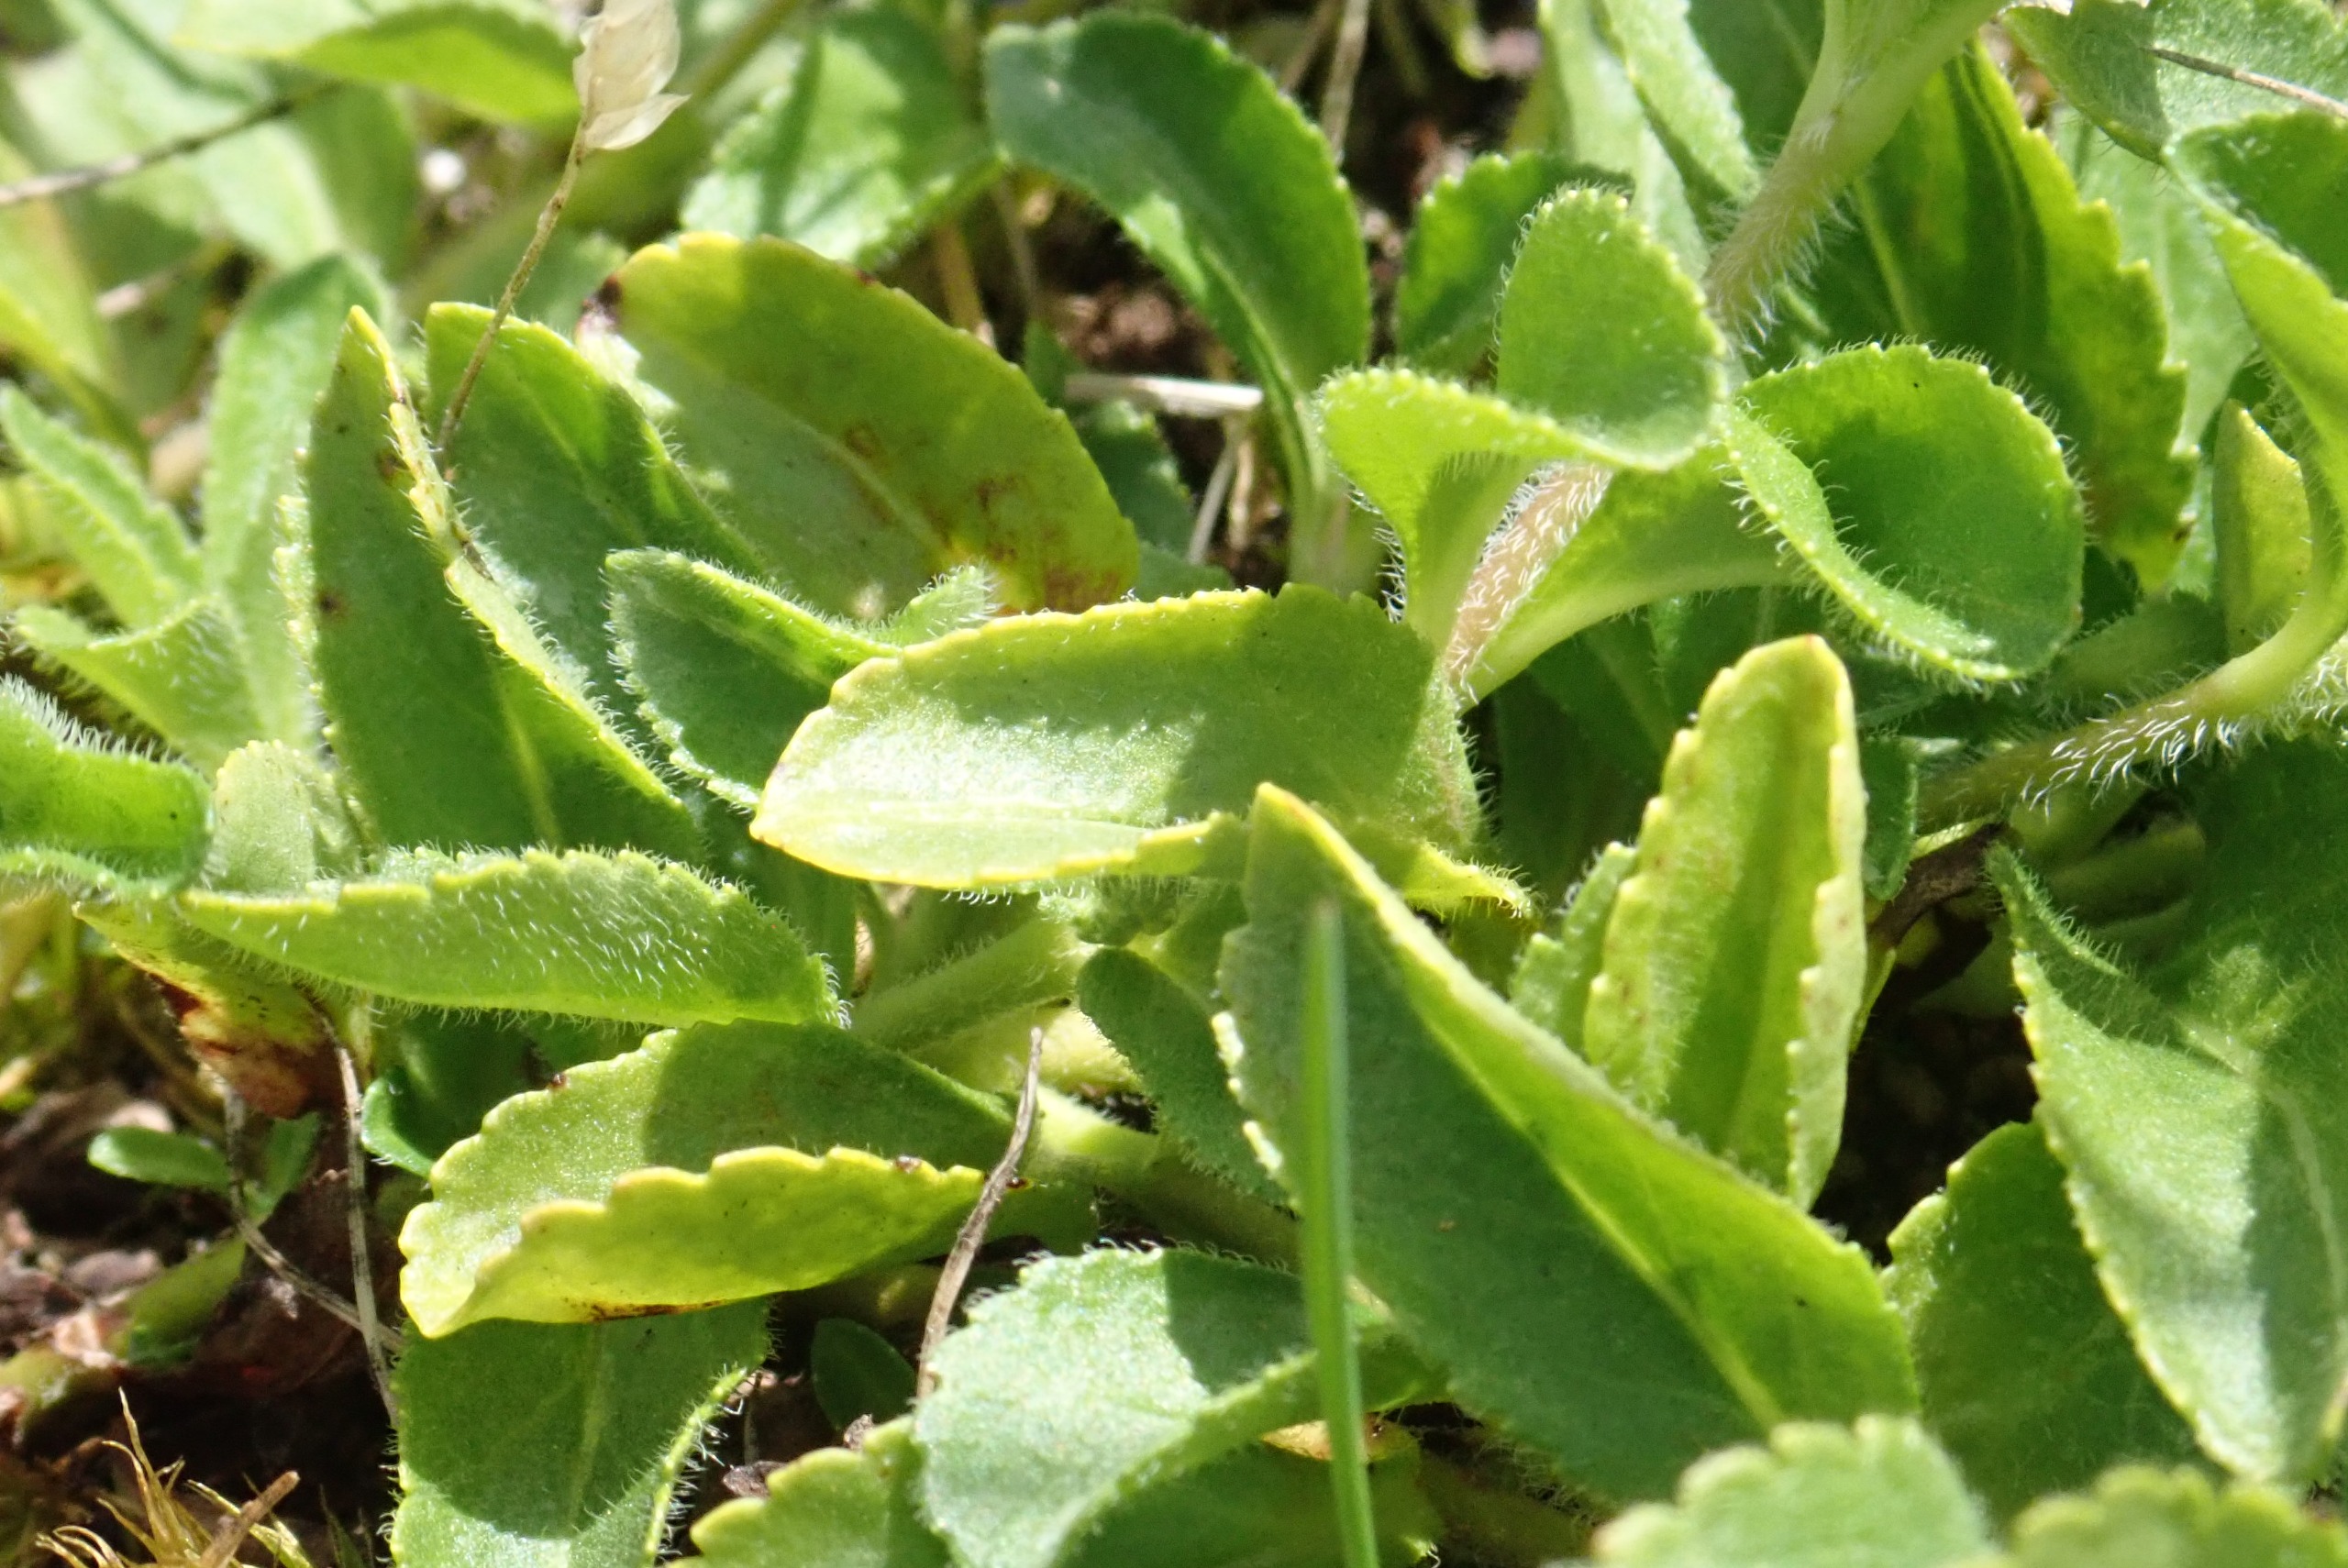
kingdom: Plantae
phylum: Tracheophyta
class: Magnoliopsida
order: Lamiales
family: Plantaginaceae
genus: Veronica
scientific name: Veronica officinalis
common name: Læge-ærenpris
